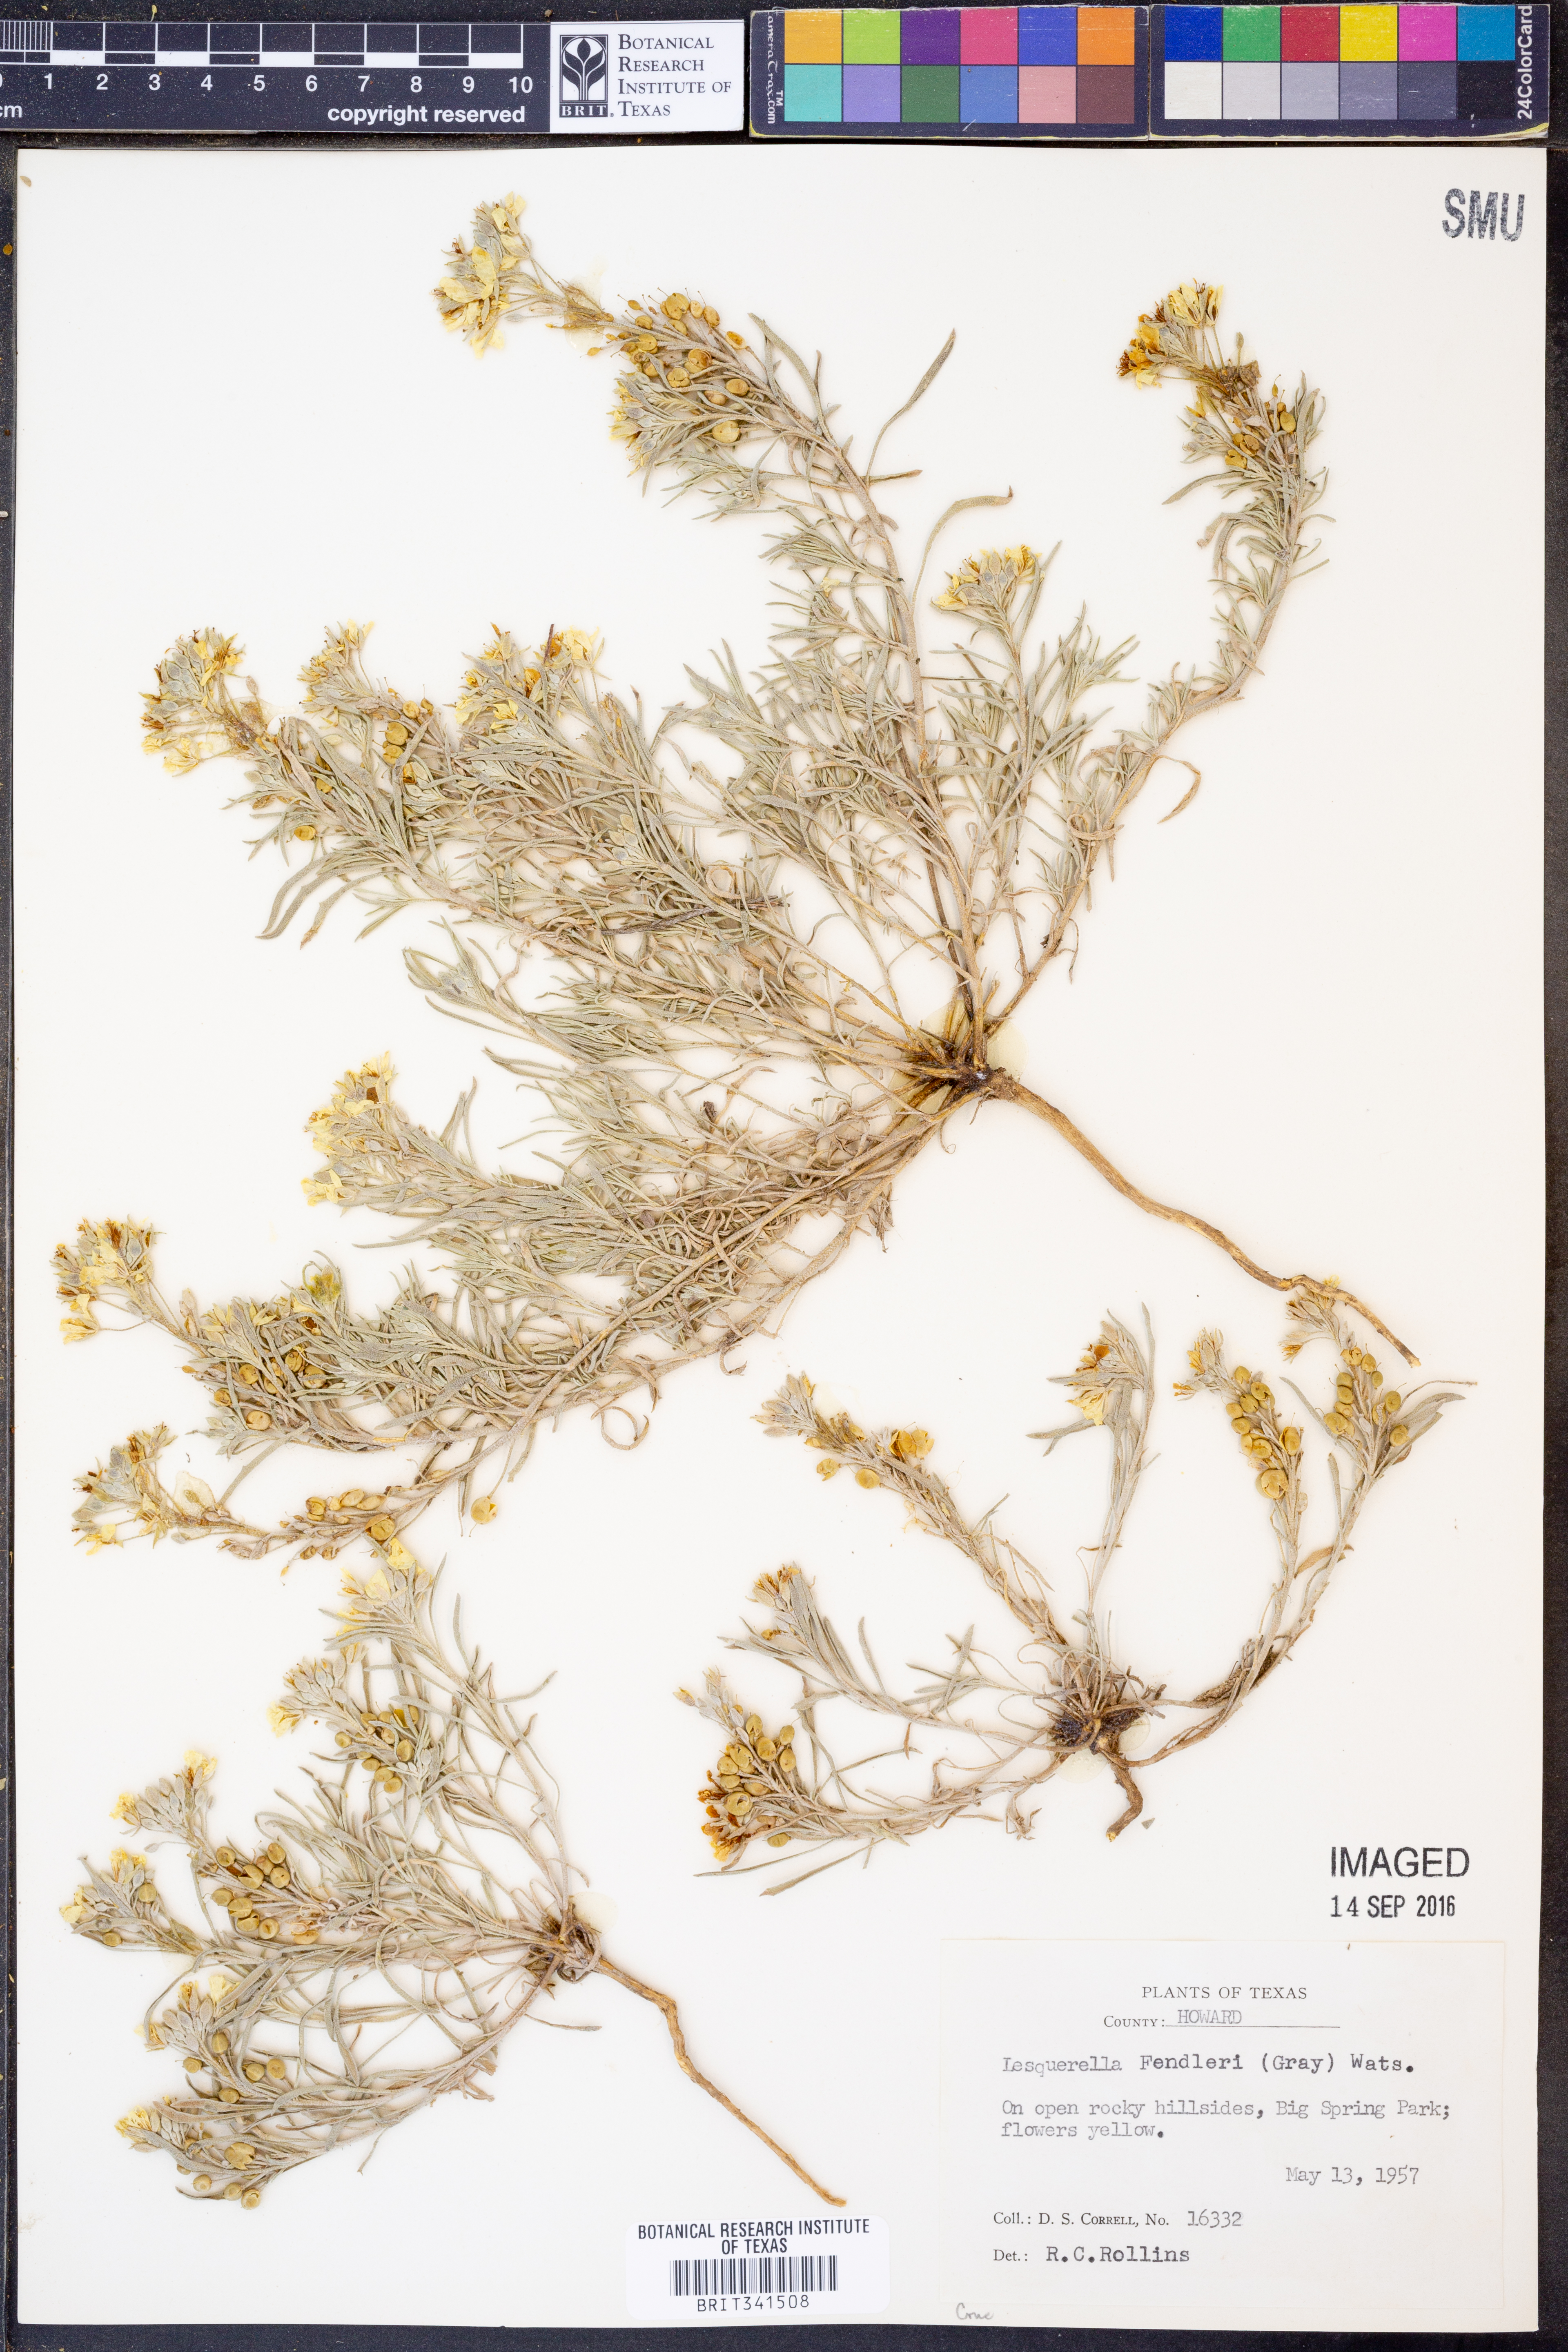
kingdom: Plantae
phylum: Tracheophyta
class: Magnoliopsida
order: Brassicales
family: Brassicaceae
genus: Physaria
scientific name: Physaria fendleri
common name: Fendler's bladderpod
